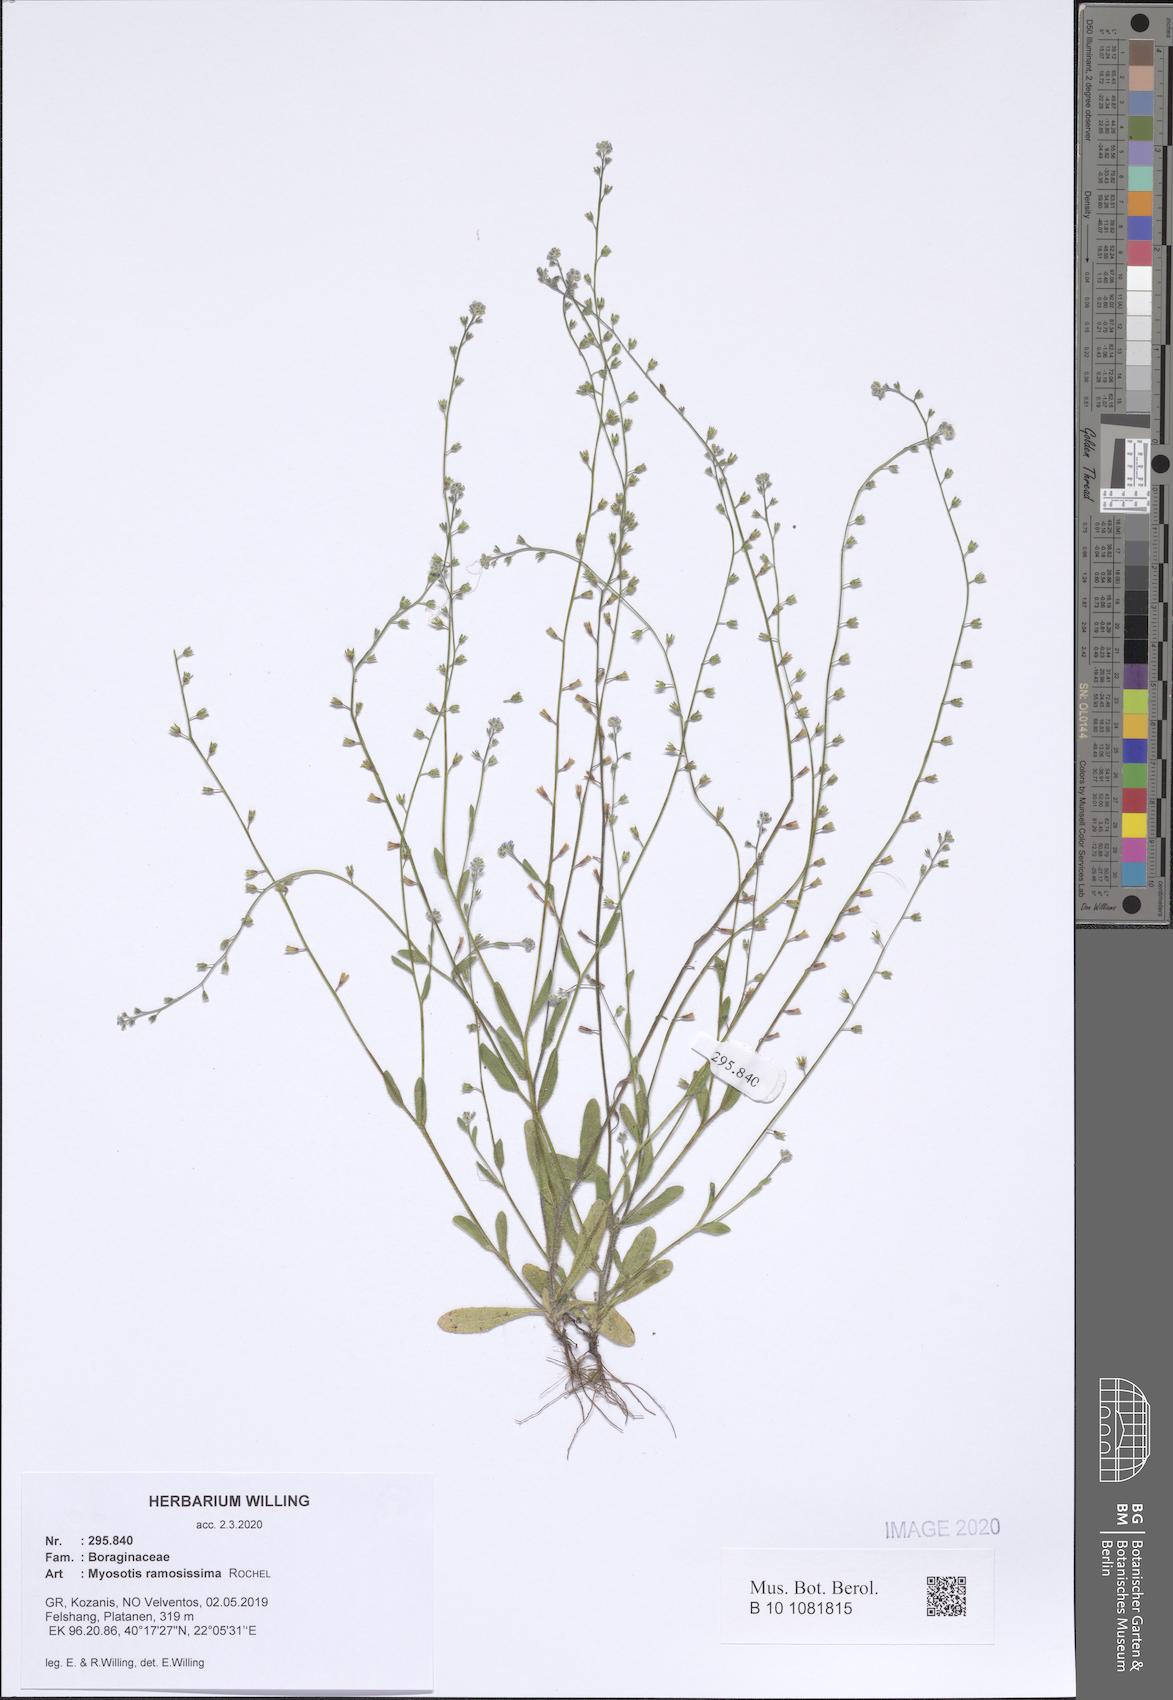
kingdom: Plantae
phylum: Tracheophyta
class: Magnoliopsida
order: Boraginales
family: Boraginaceae
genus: Myosotis
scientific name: Myosotis ramosissima
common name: Early forget-me-not
